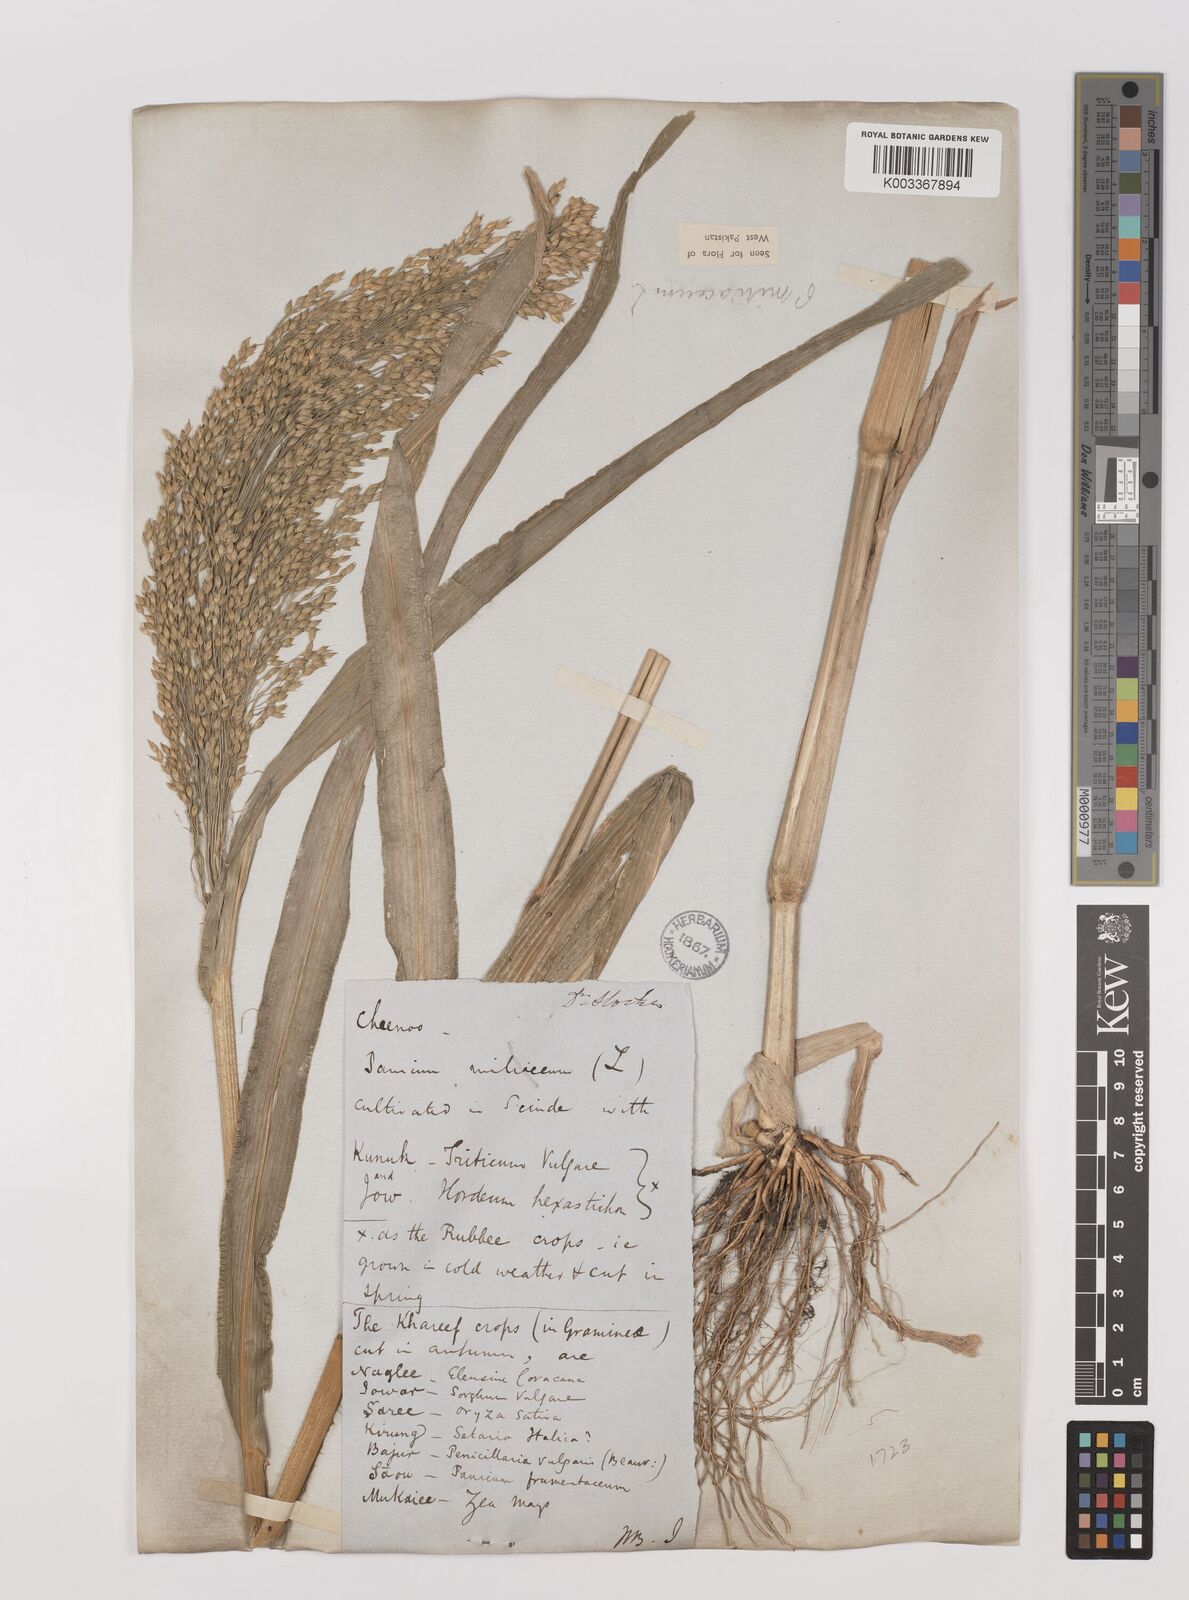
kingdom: Plantae
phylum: Tracheophyta
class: Liliopsida
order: Poales
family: Poaceae
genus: Panicum
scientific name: Panicum miliaceum
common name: Common millet
